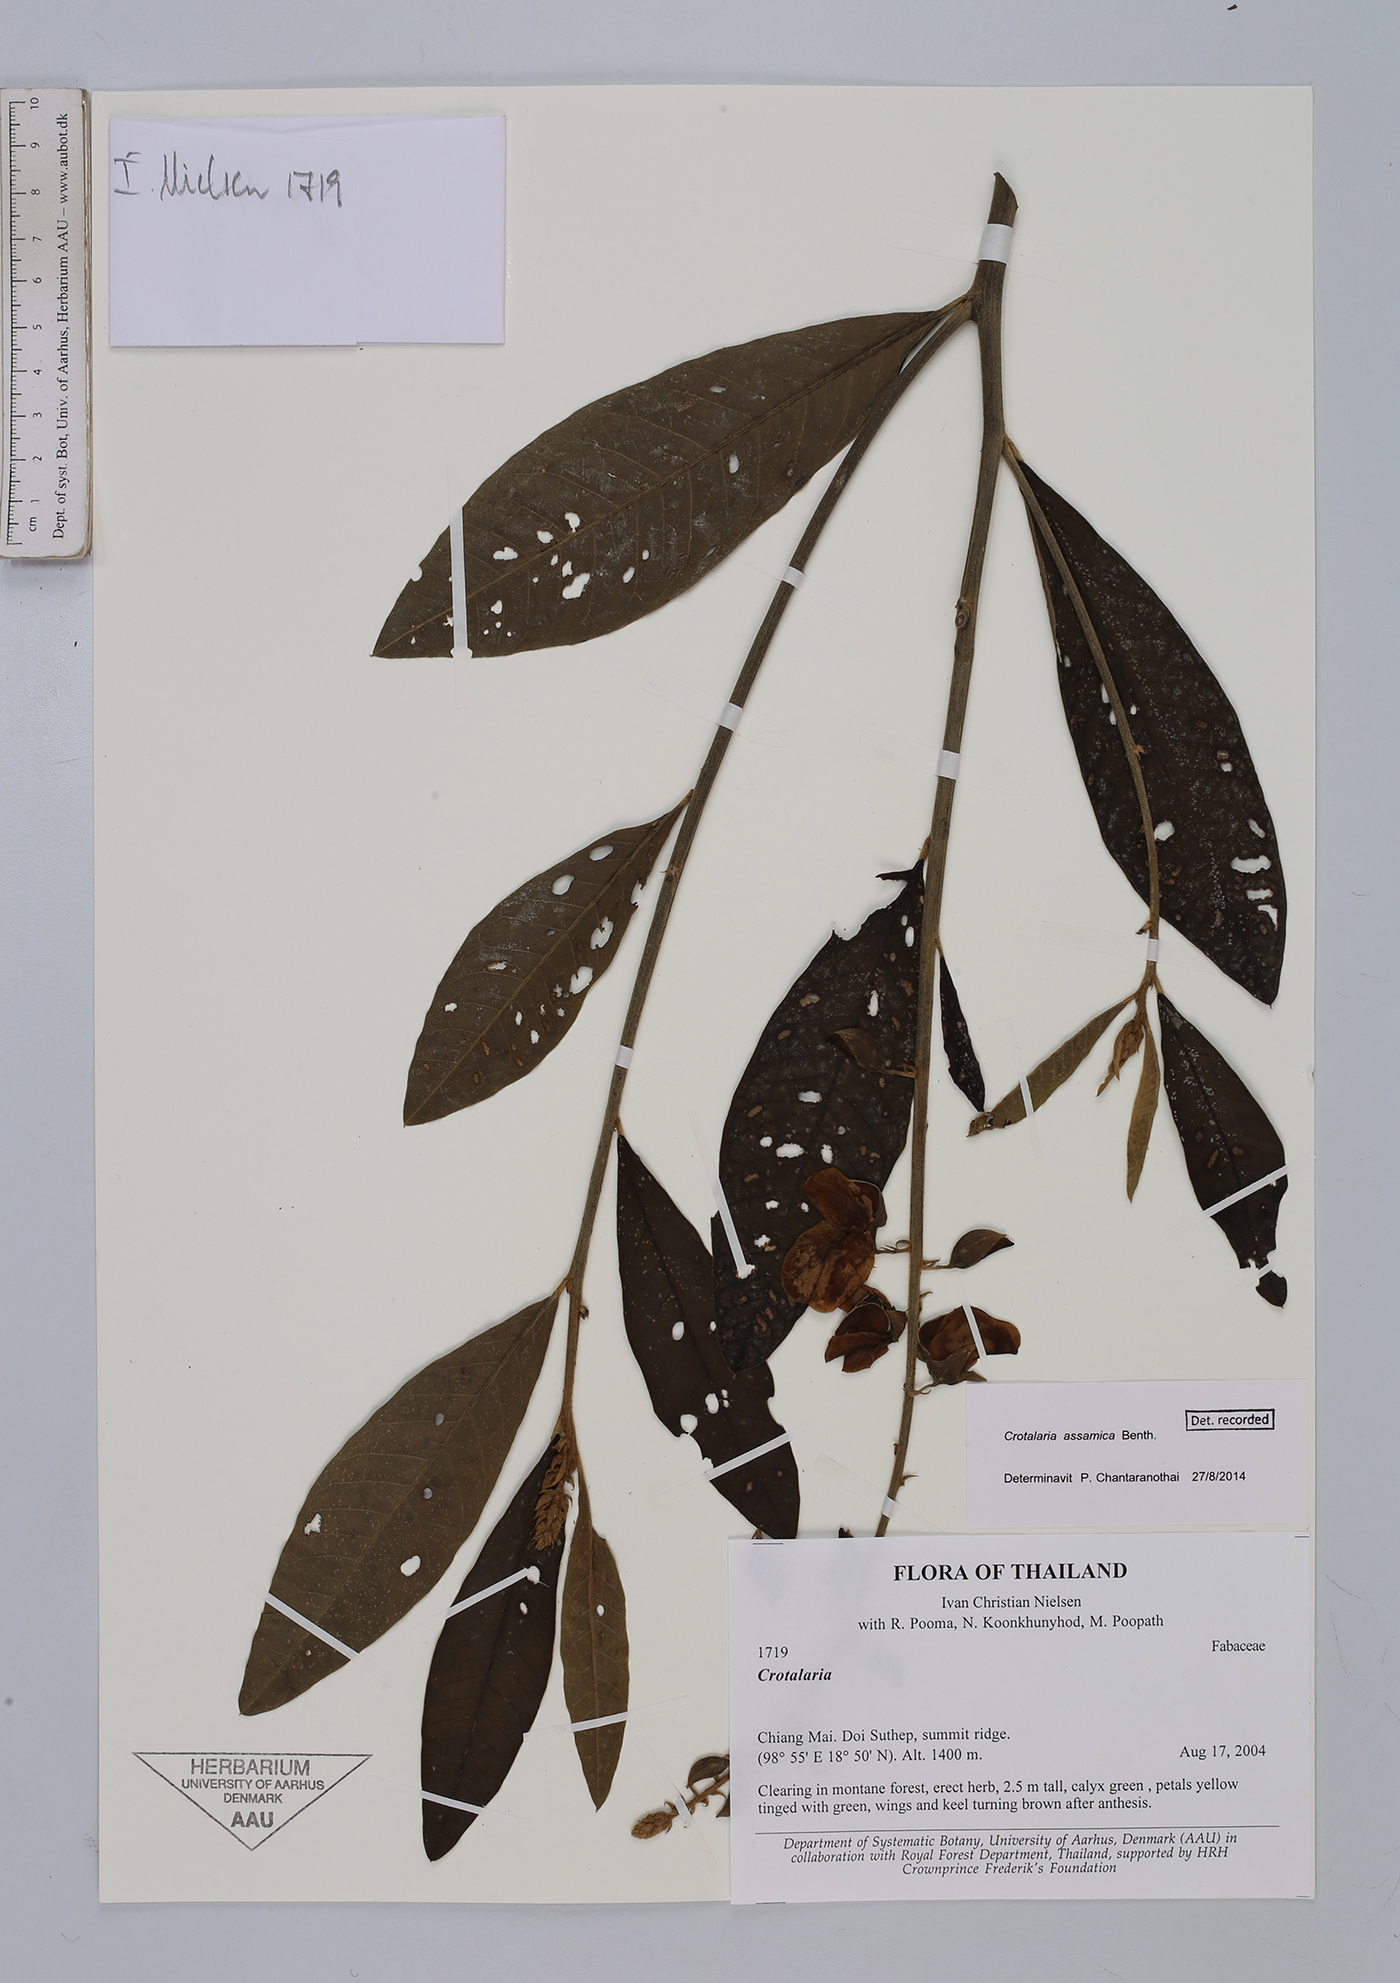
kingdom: Plantae
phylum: Tracheophyta
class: Magnoliopsida
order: Fabales
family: Fabaceae
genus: Crotalaria
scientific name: Crotalaria sericea
